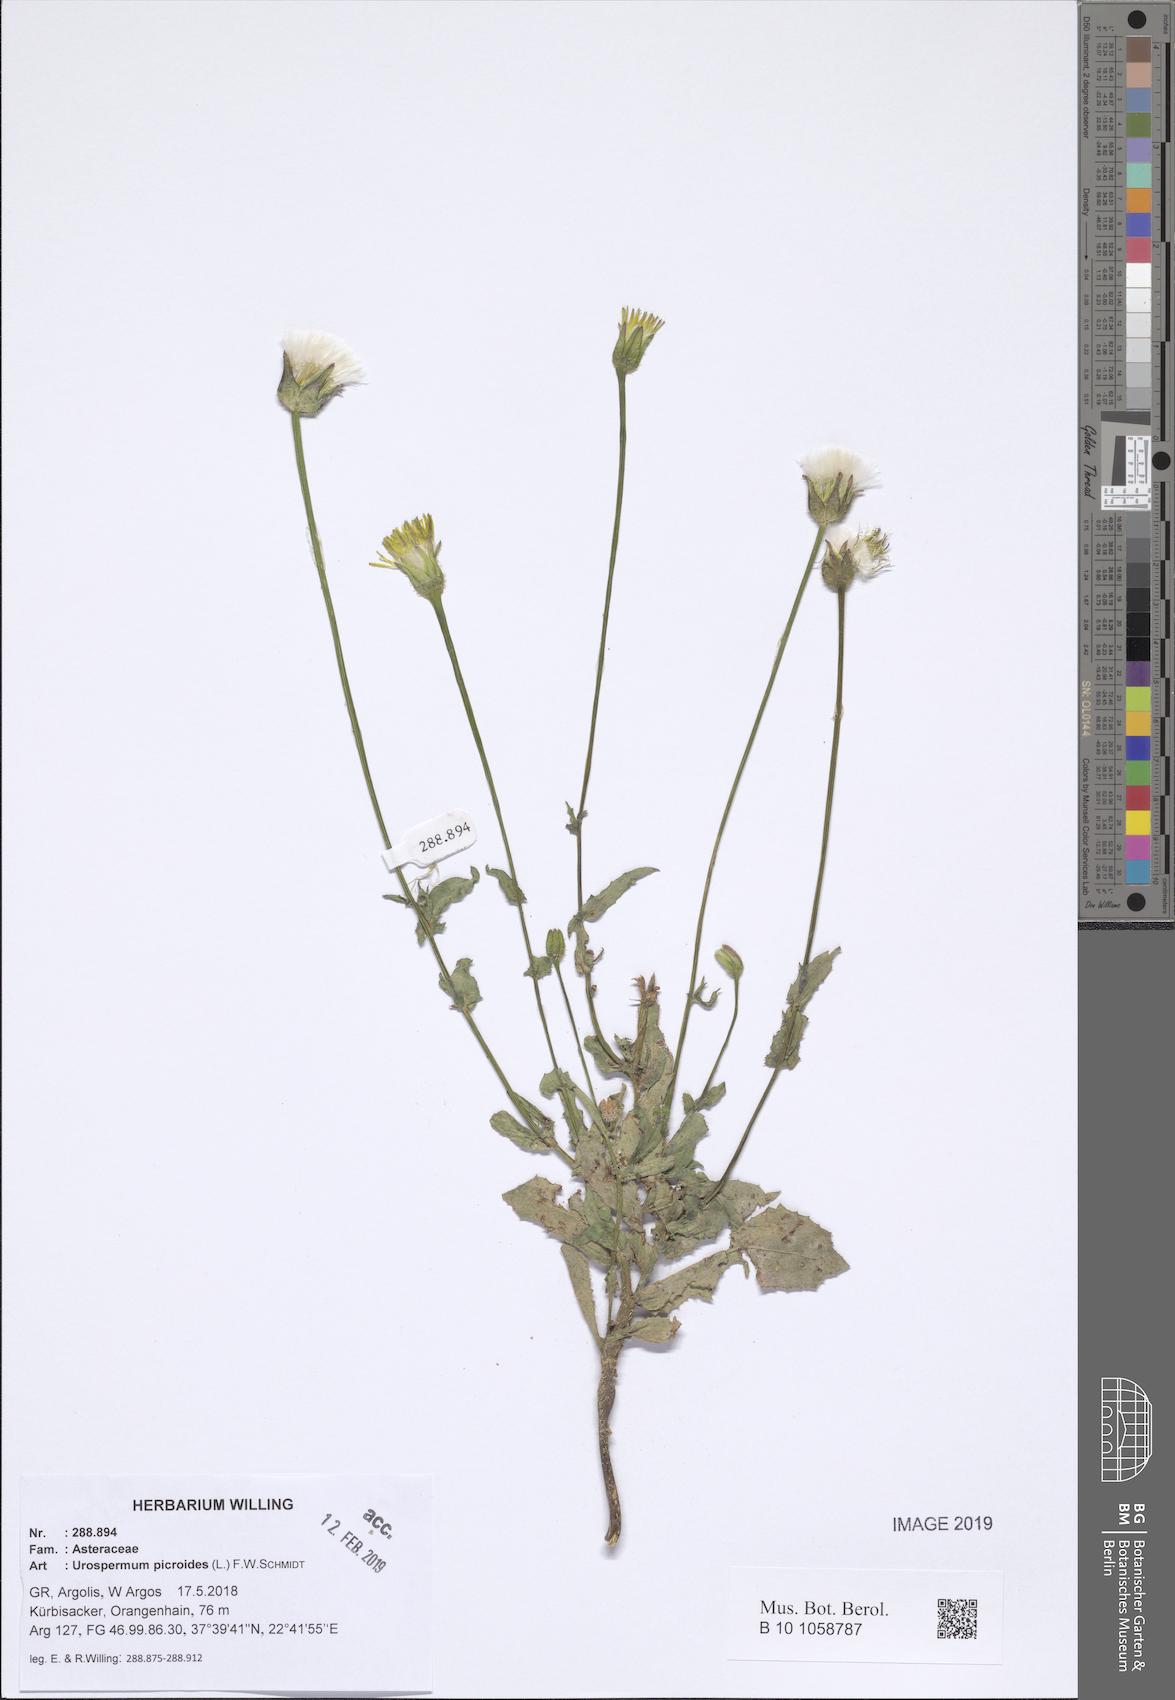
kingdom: Plantae
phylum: Tracheophyta
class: Magnoliopsida
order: Asterales
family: Asteraceae
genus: Urospermum
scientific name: Urospermum picroides
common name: False hawkbit
